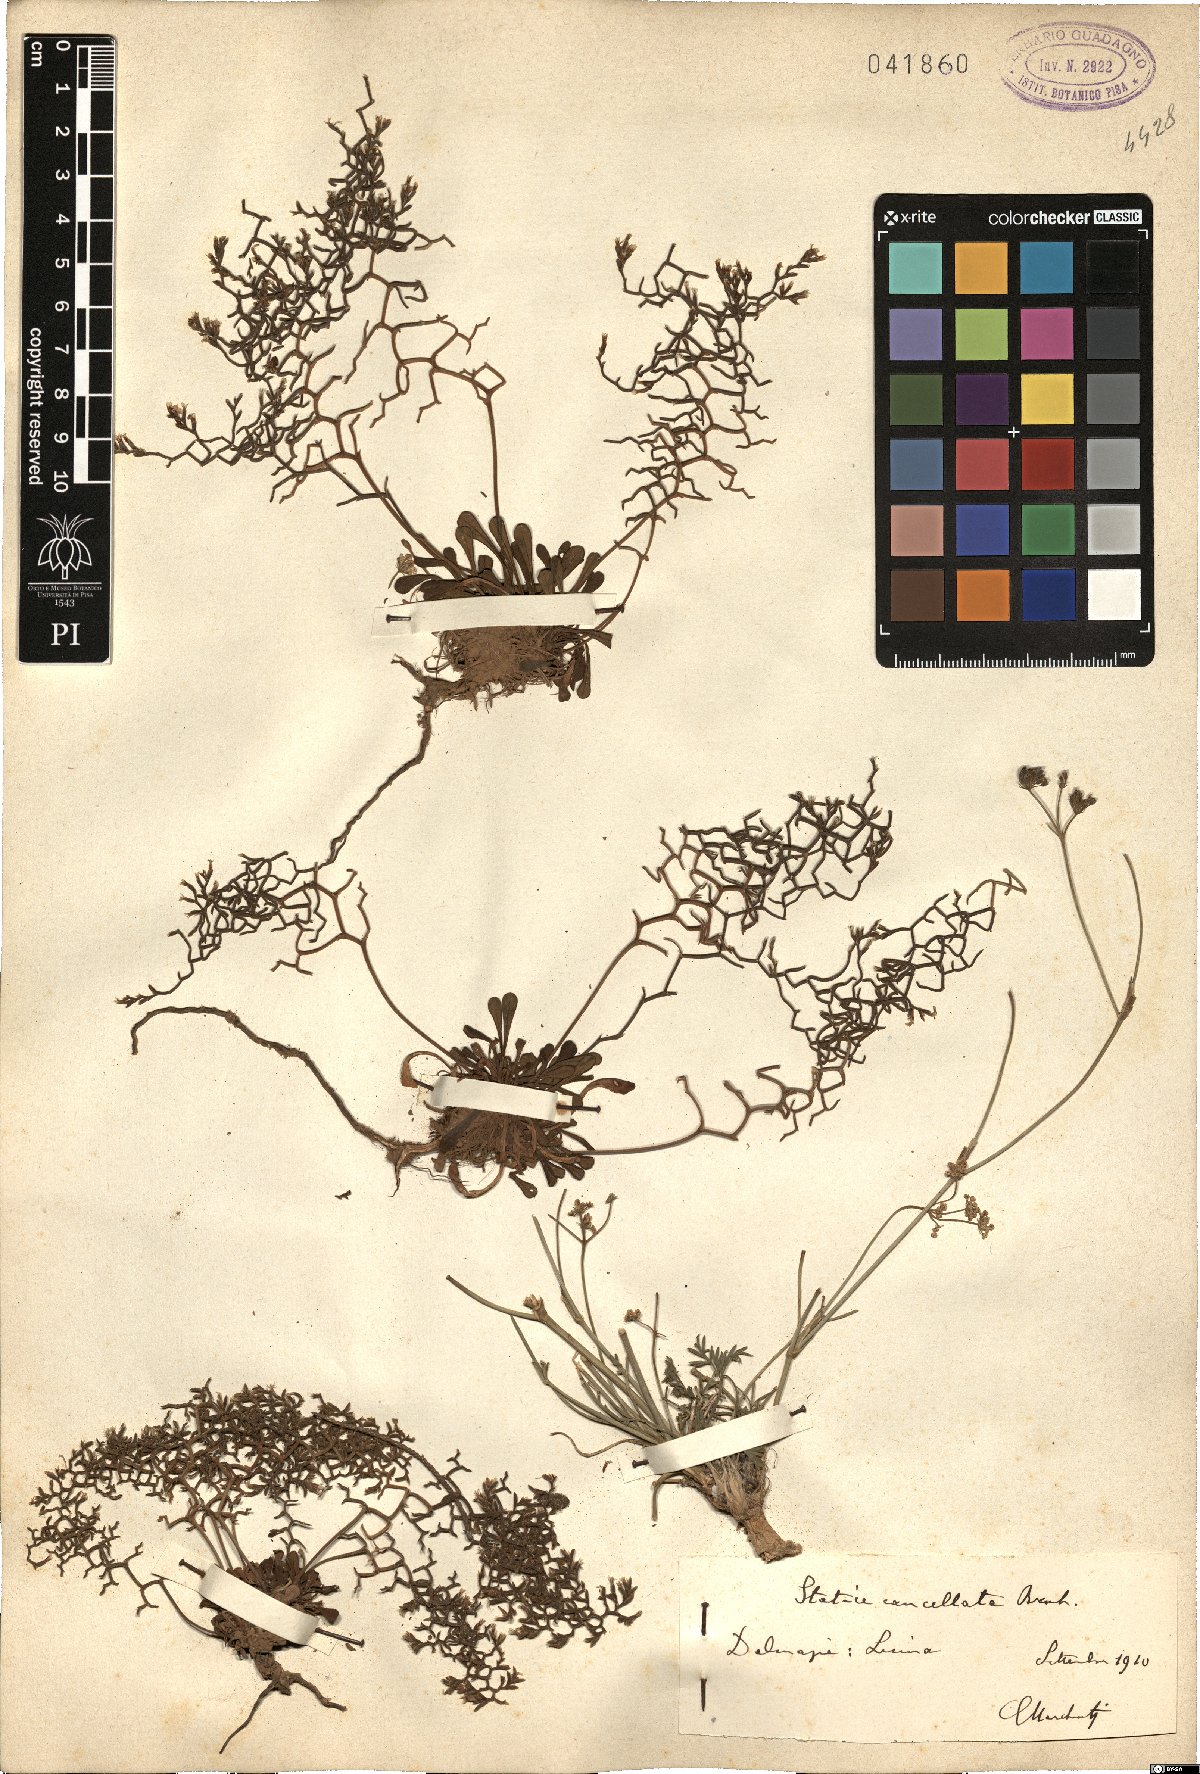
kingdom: Plantae
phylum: Tracheophyta
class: Magnoliopsida
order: Caryophyllales
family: Plumbaginaceae
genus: Limonium
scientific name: Limonium cancellatum
